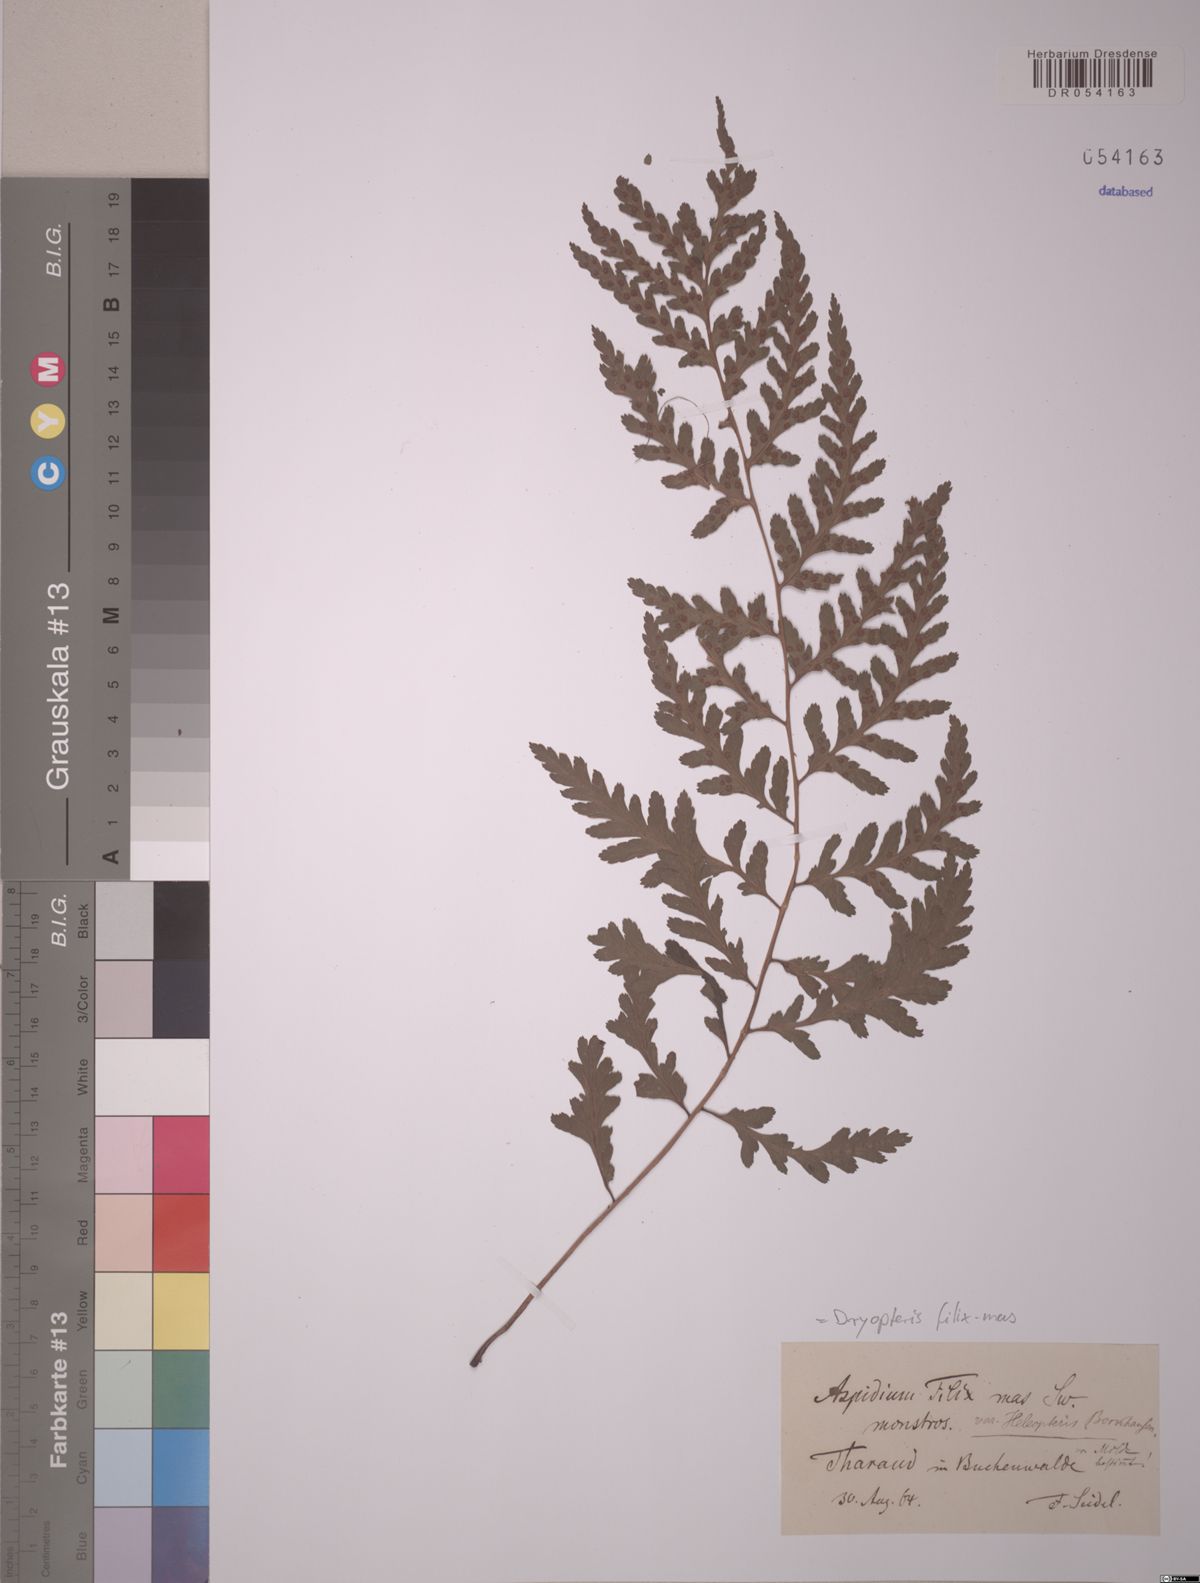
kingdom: Plantae
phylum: Tracheophyta
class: Polypodiopsida
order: Polypodiales
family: Dryopteridaceae
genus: Dryopteris
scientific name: Dryopteris filix-mas
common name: Male fern
